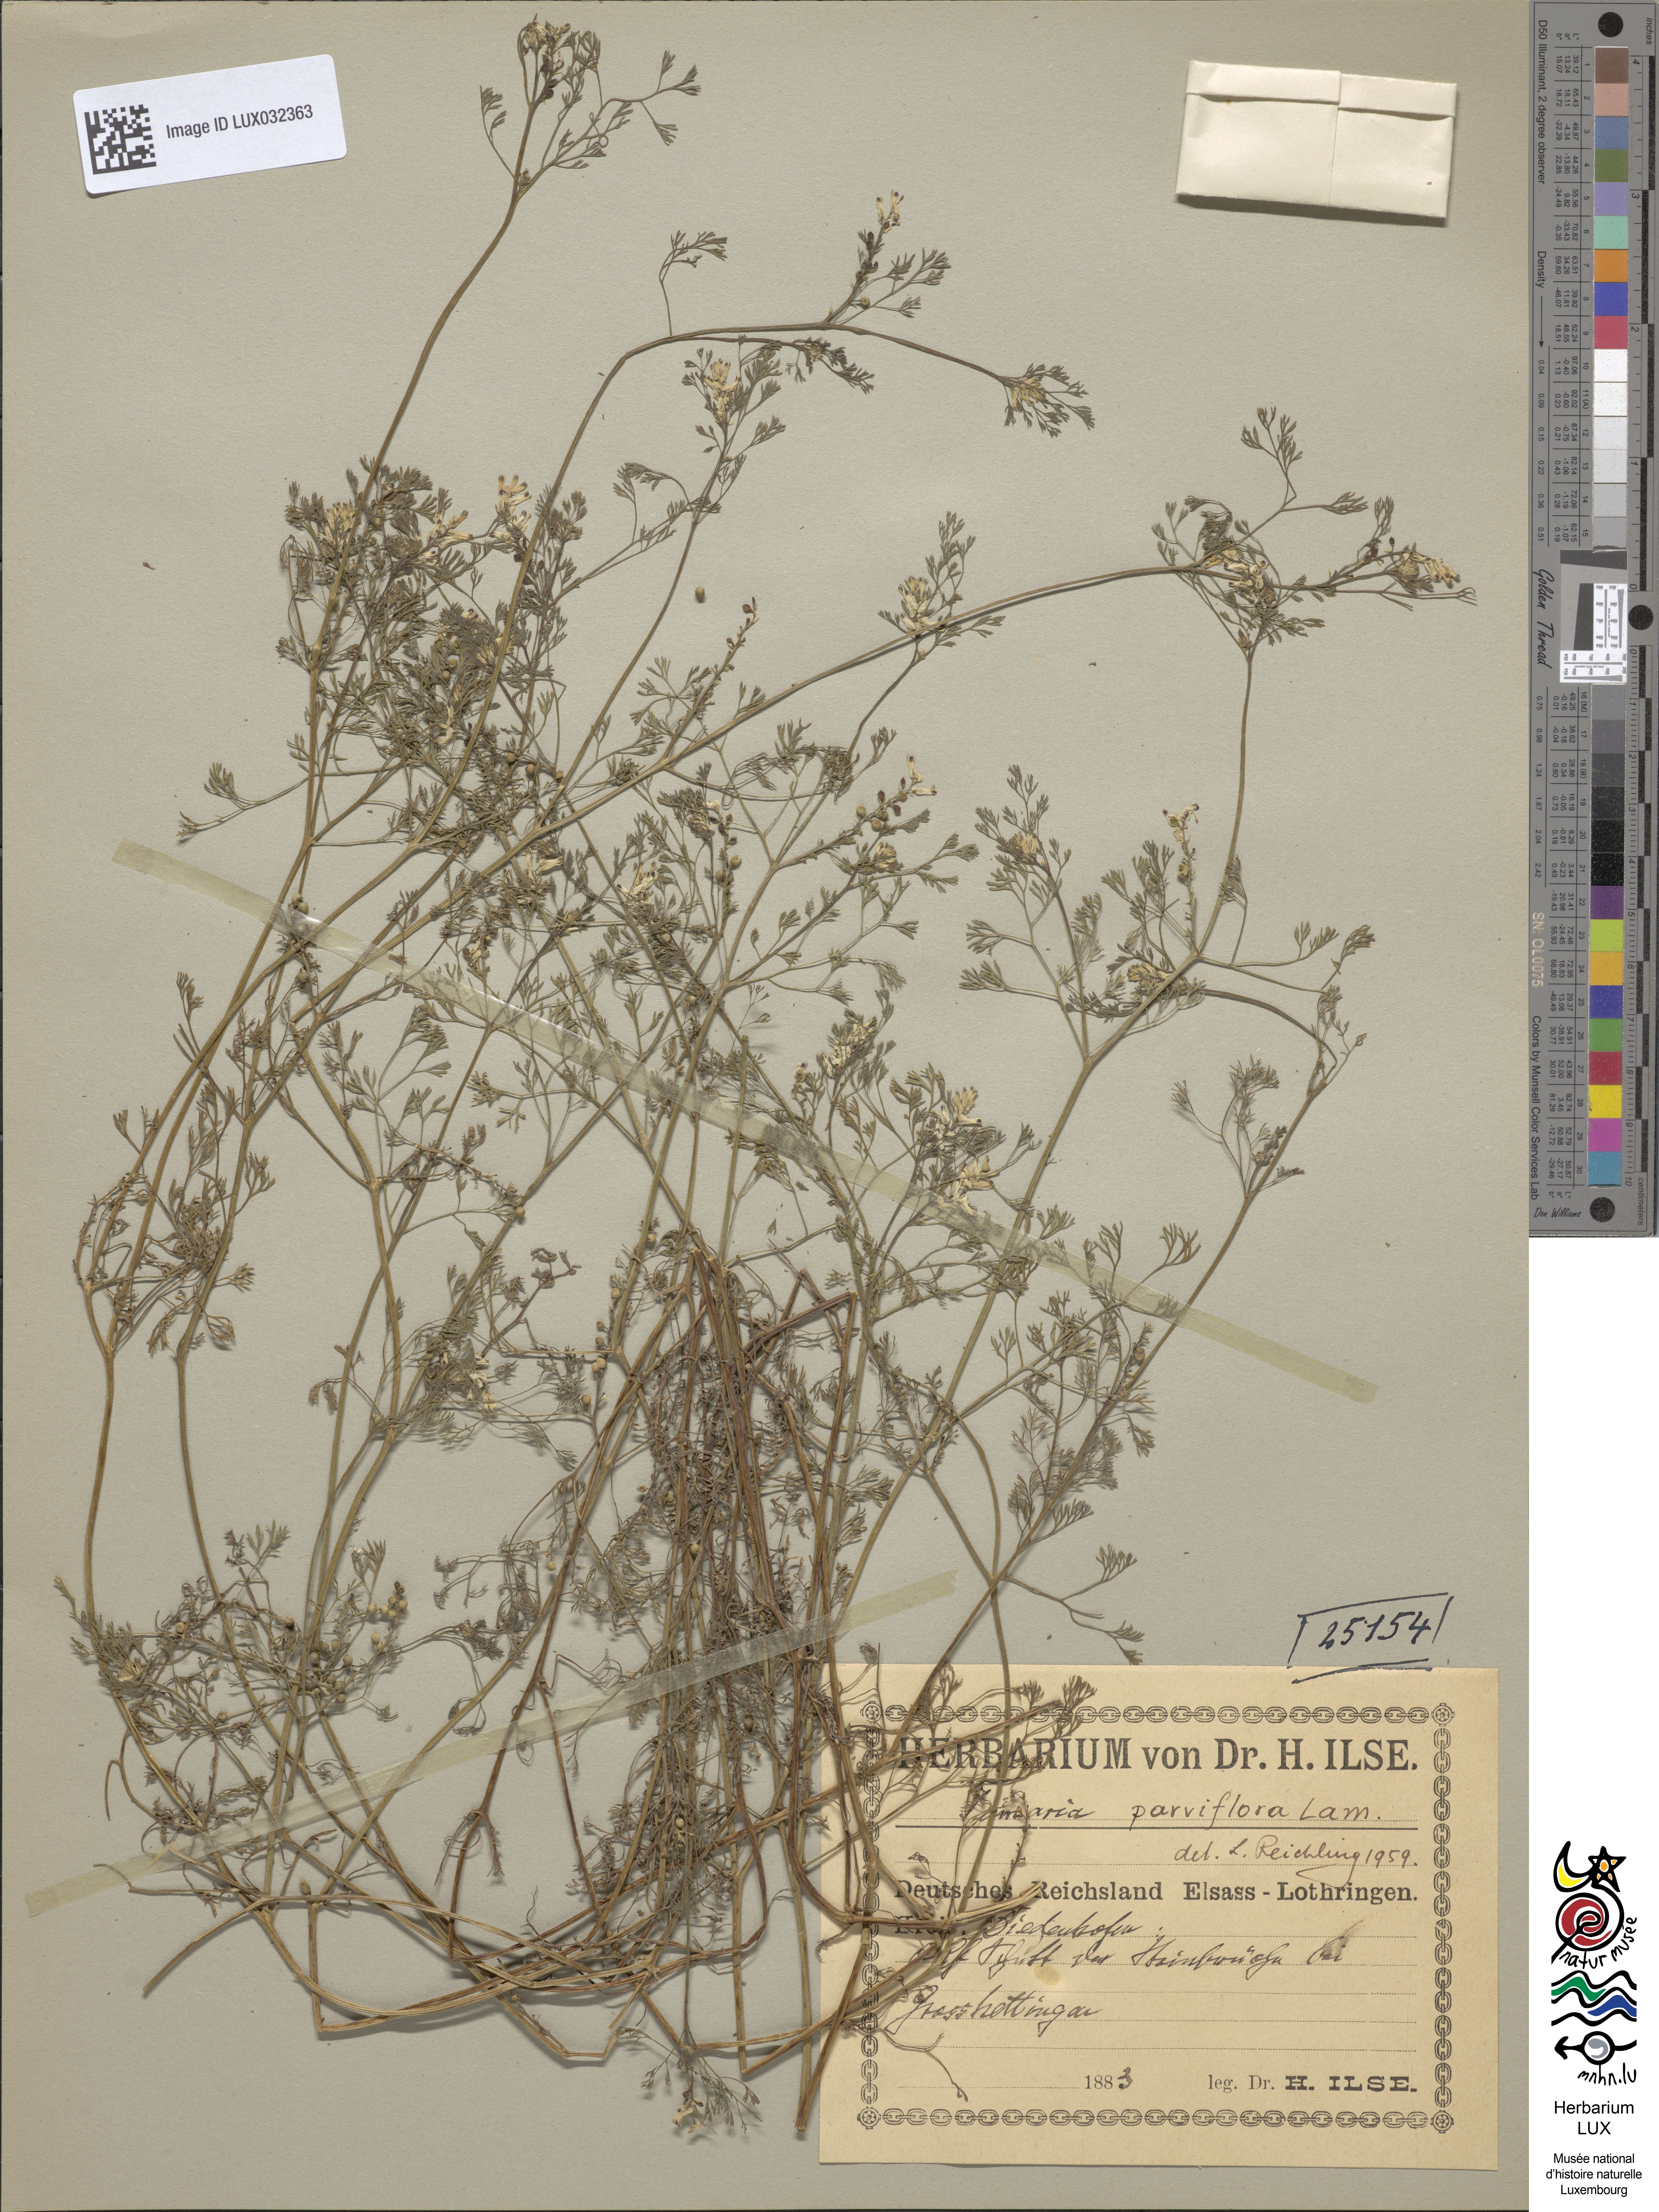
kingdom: Plantae
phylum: Tracheophyta
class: Magnoliopsida
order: Ranunculales
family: Papaveraceae
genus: Fumaria
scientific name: Fumaria parviflora
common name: Fine-leaved fumitory
